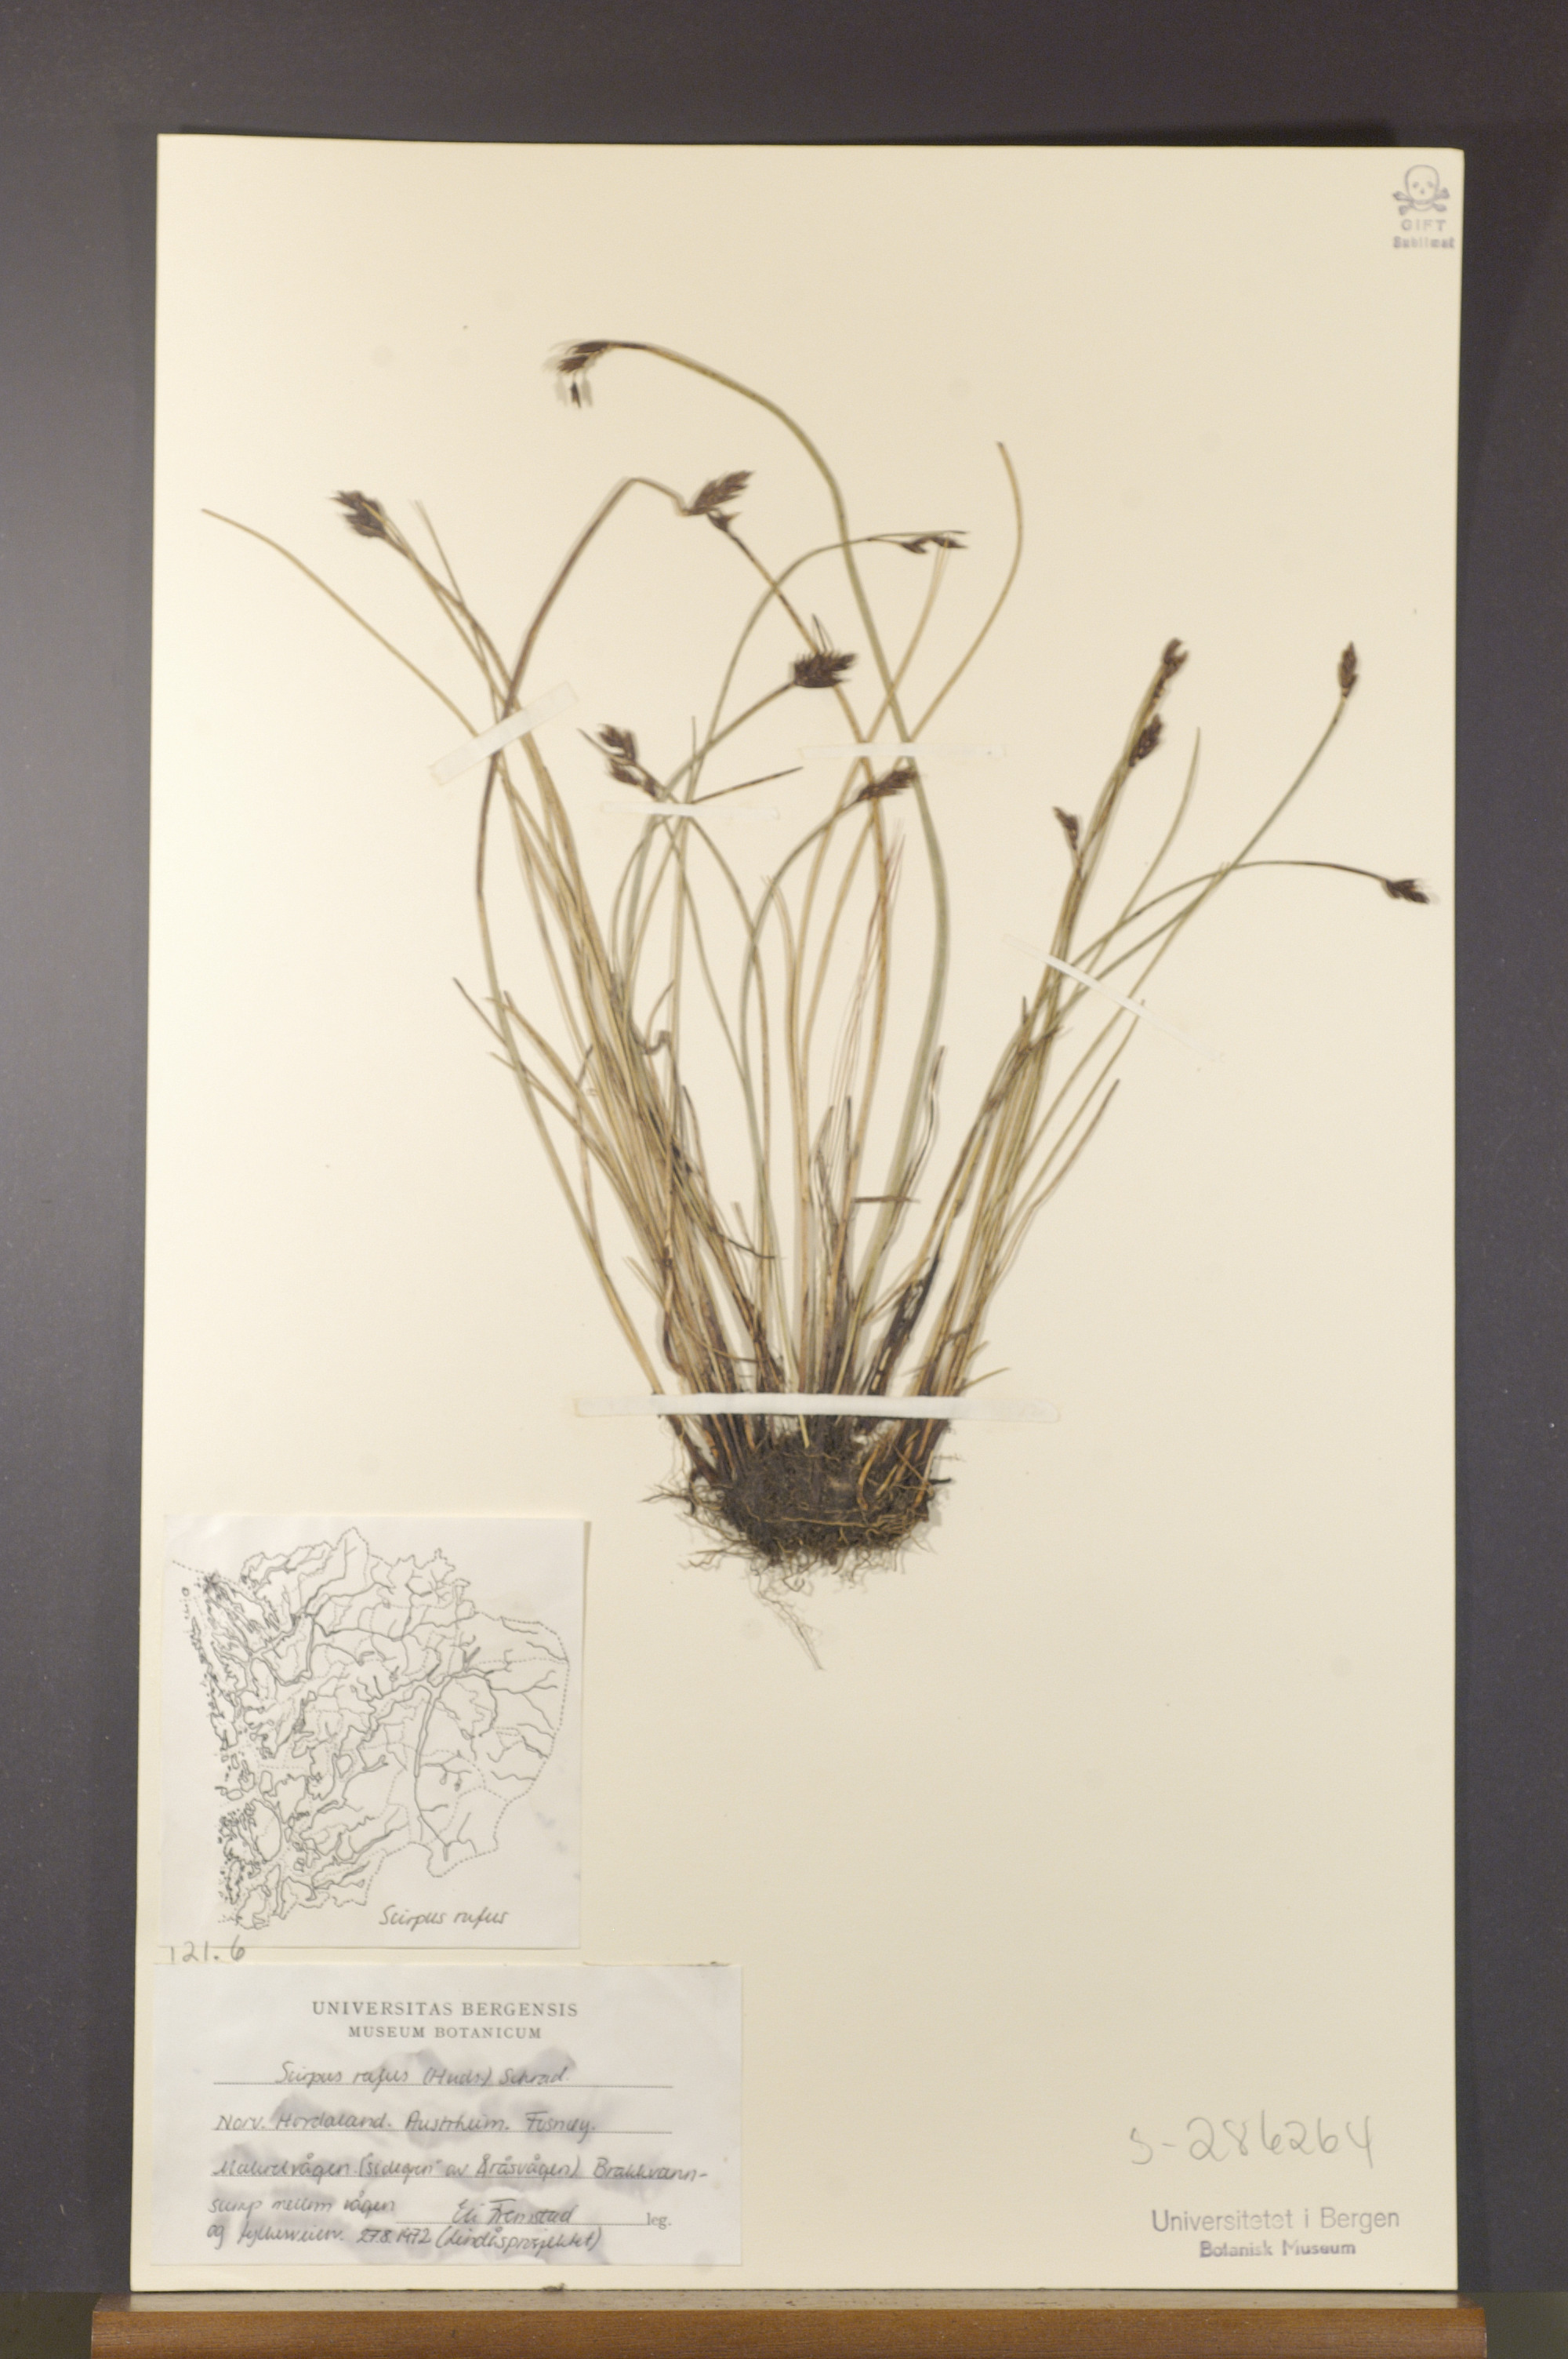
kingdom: Plantae
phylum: Tracheophyta
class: Liliopsida
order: Poales
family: Cyperaceae
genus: Blysmus
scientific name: Blysmus rufus
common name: Saltmarsh flat-sedge
